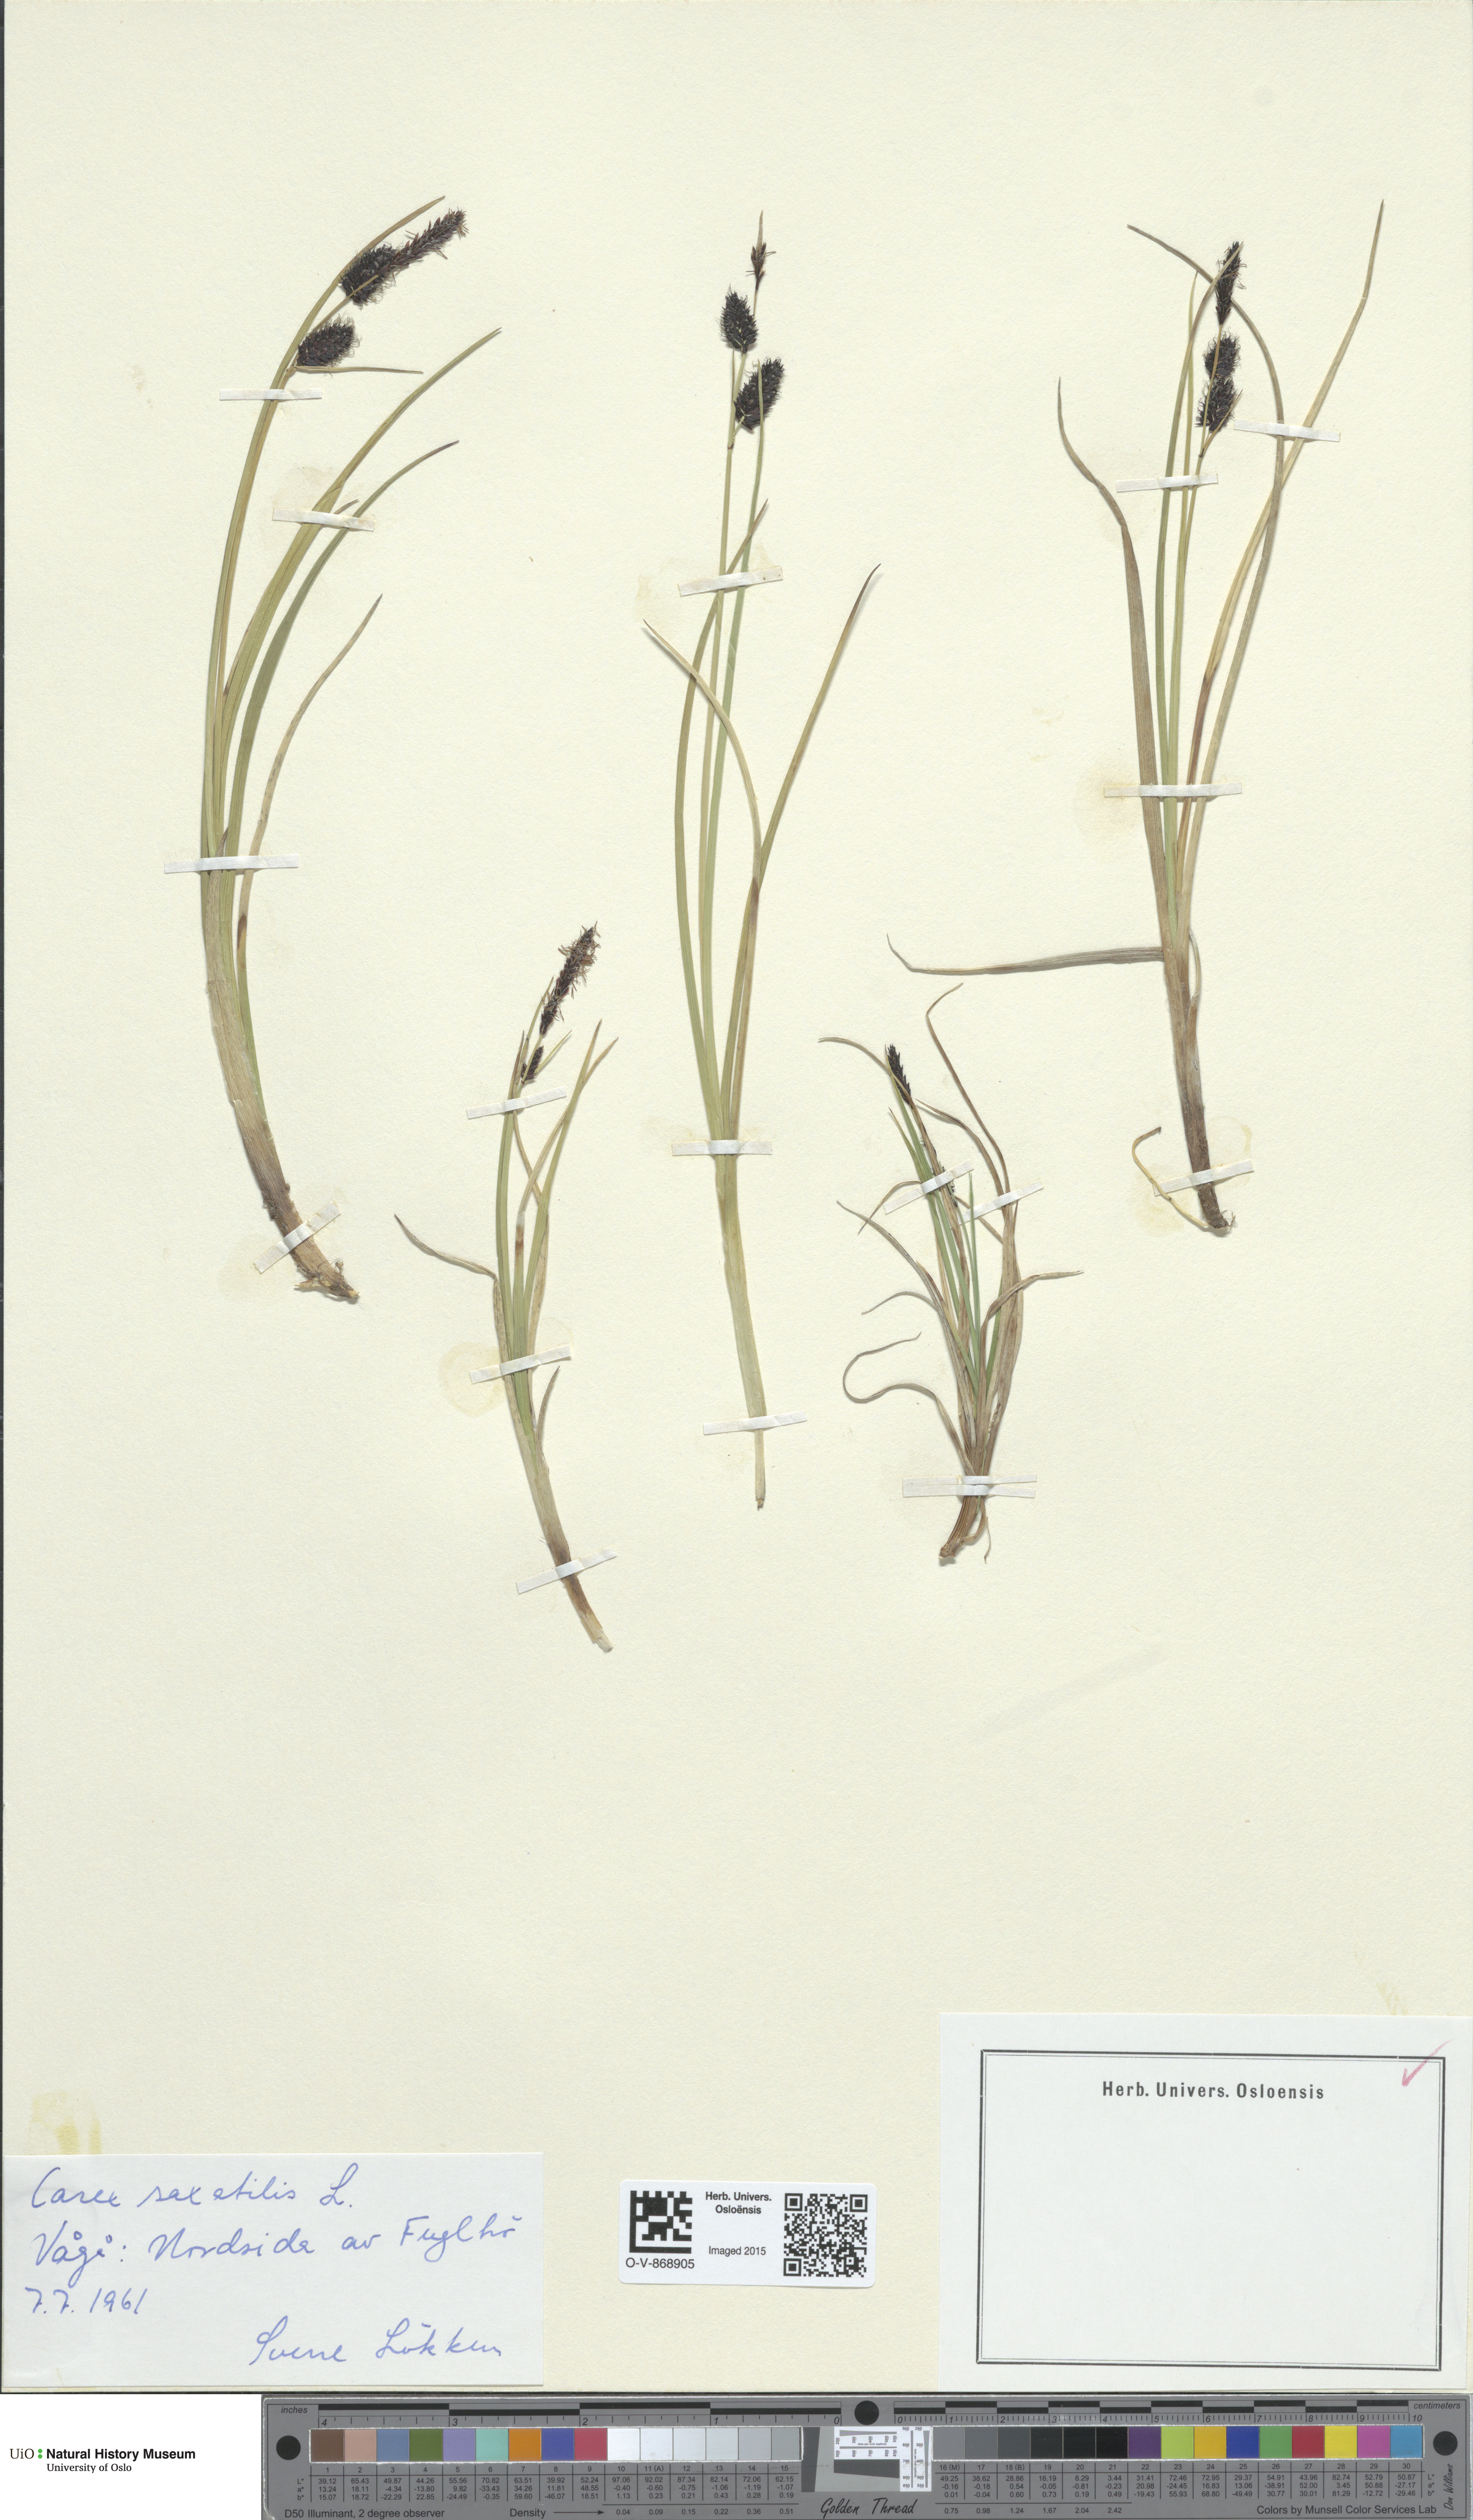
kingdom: Plantae
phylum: Tracheophyta
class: Liliopsida
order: Poales
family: Cyperaceae
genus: Carex
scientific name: Carex saxatilis
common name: Russet sedge
